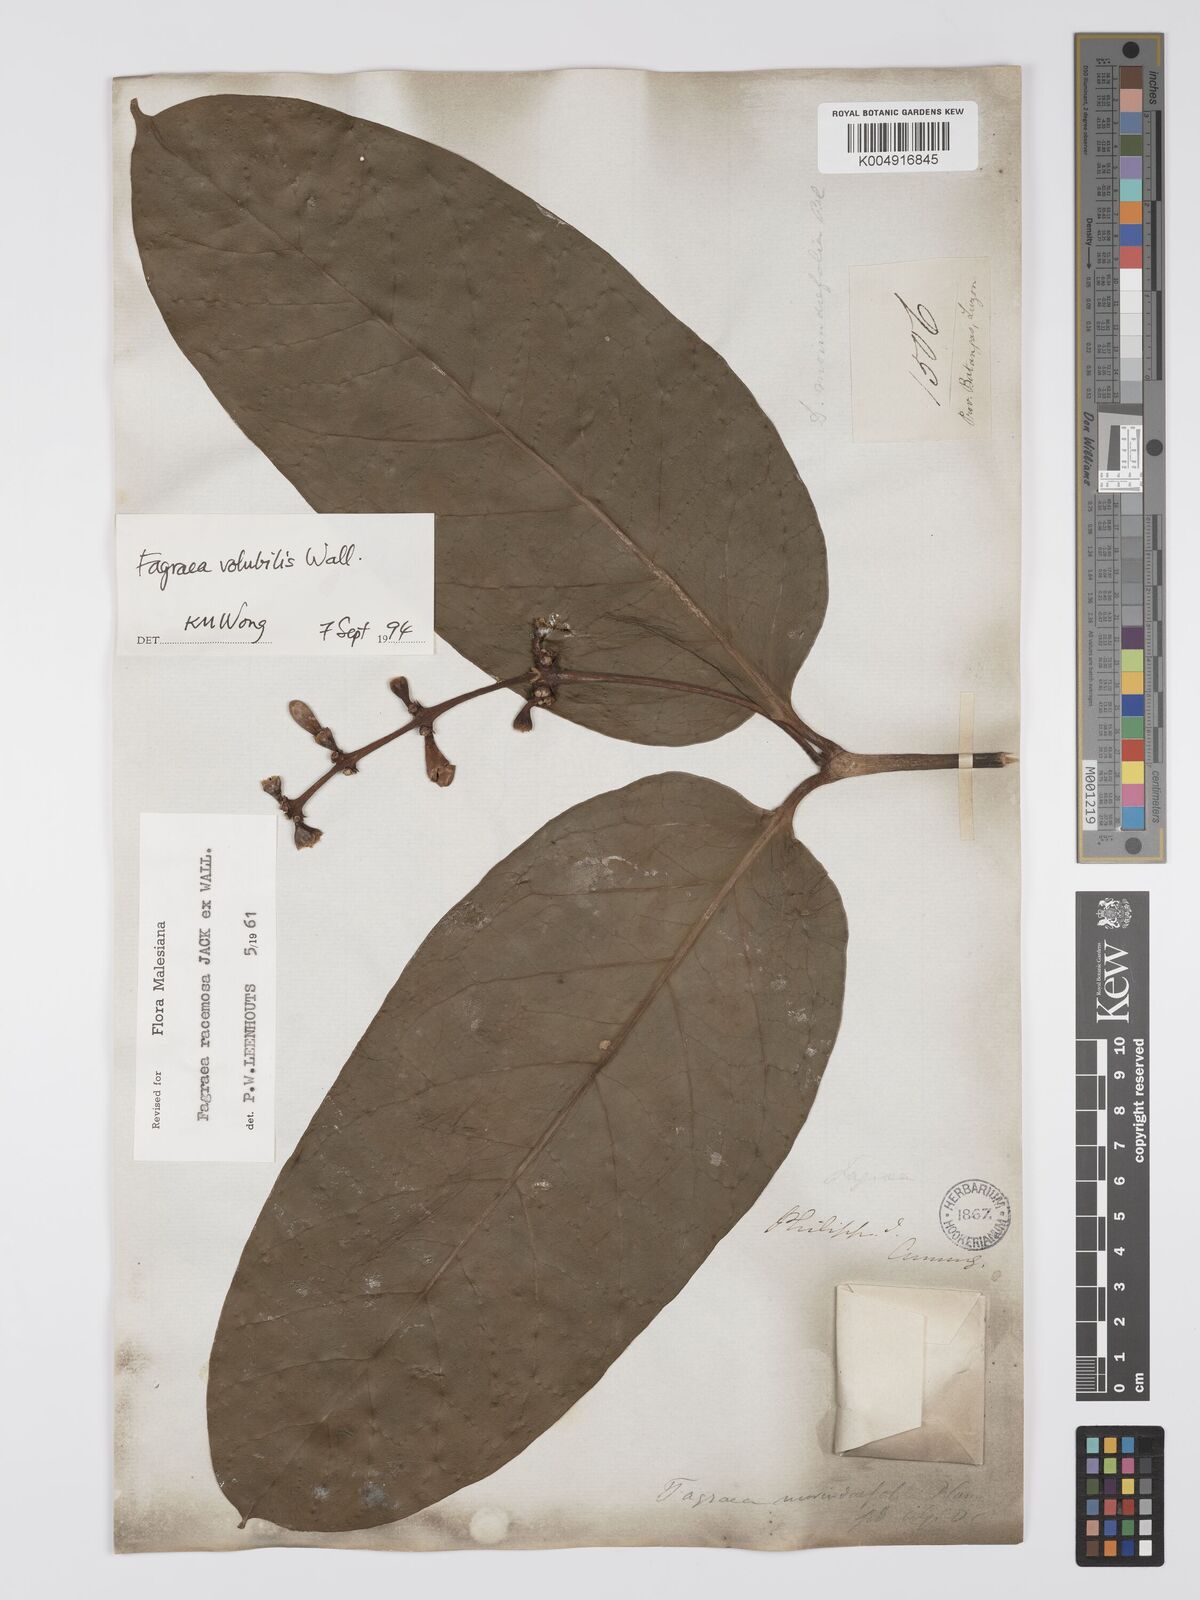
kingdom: Plantae
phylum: Tracheophyta
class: Magnoliopsida
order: Gentianales
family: Gentianaceae
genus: Utania
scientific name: Utania racemosa
